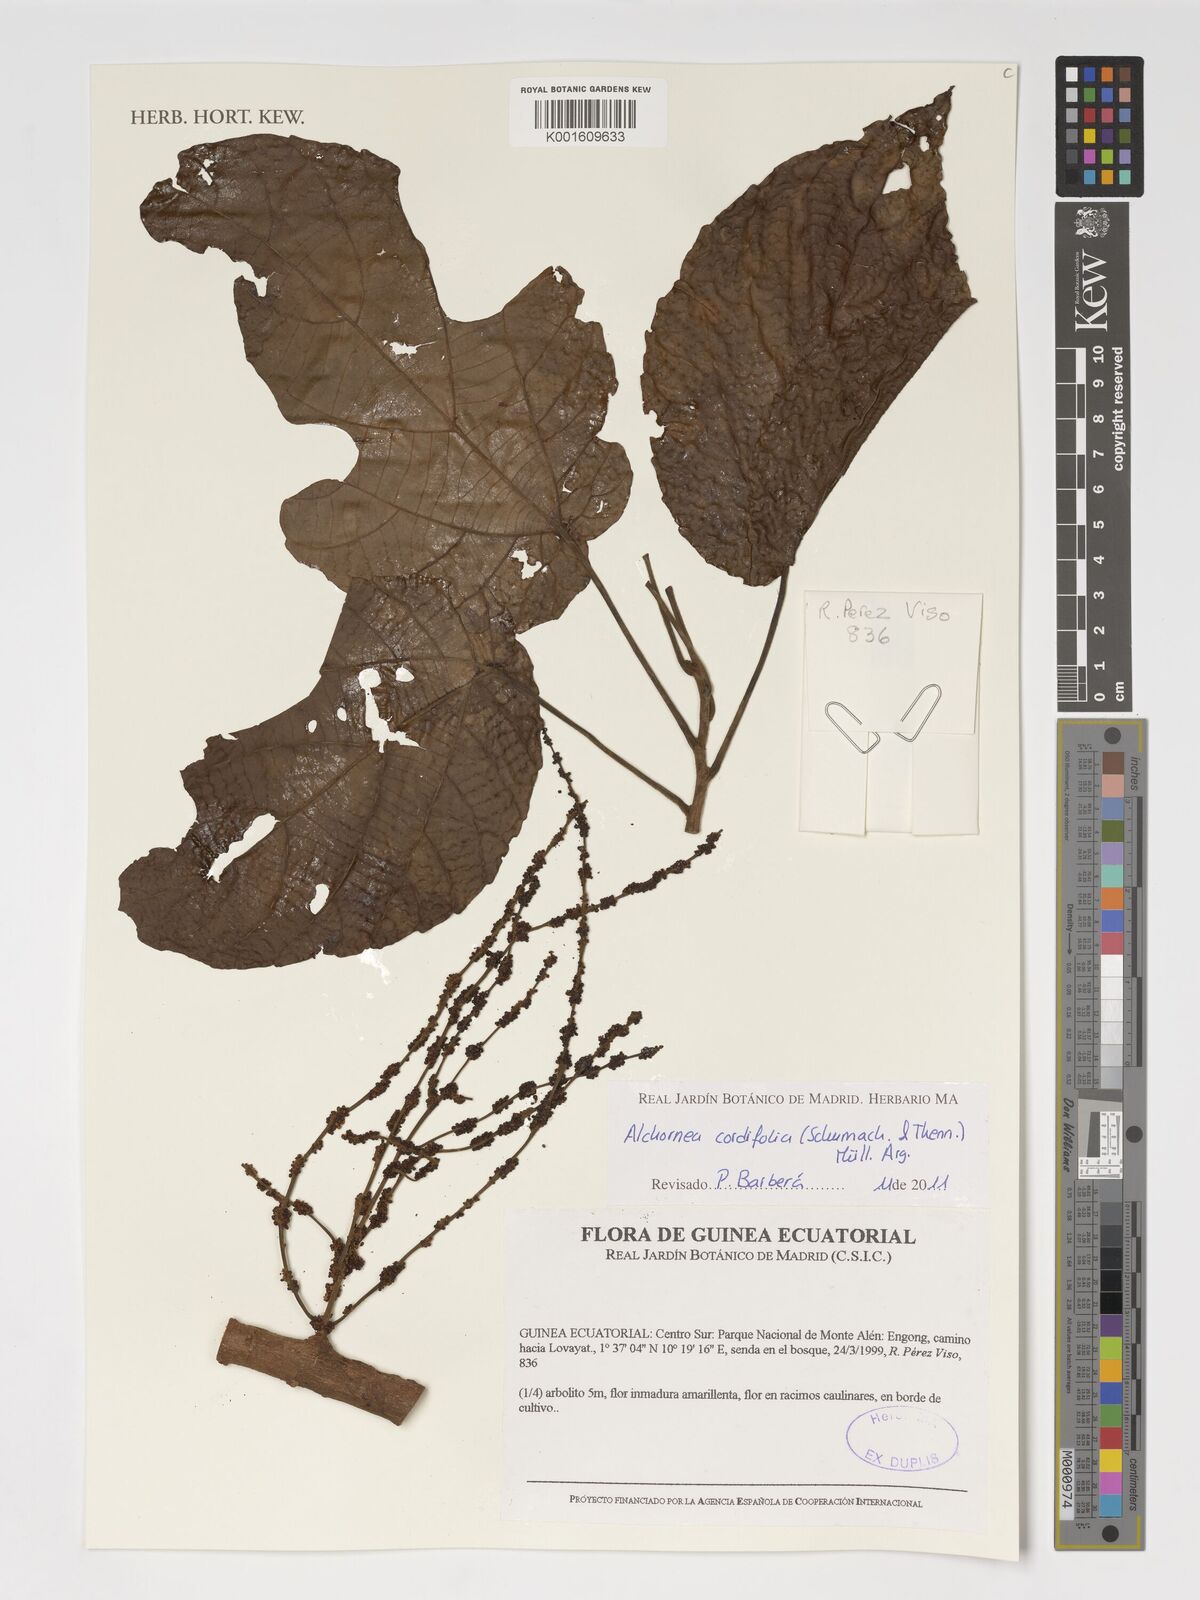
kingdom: Plantae
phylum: Tracheophyta
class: Magnoliopsida
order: Malpighiales
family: Euphorbiaceae
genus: Alchornea
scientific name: Alchornea cordifolia
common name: Christmasbush
